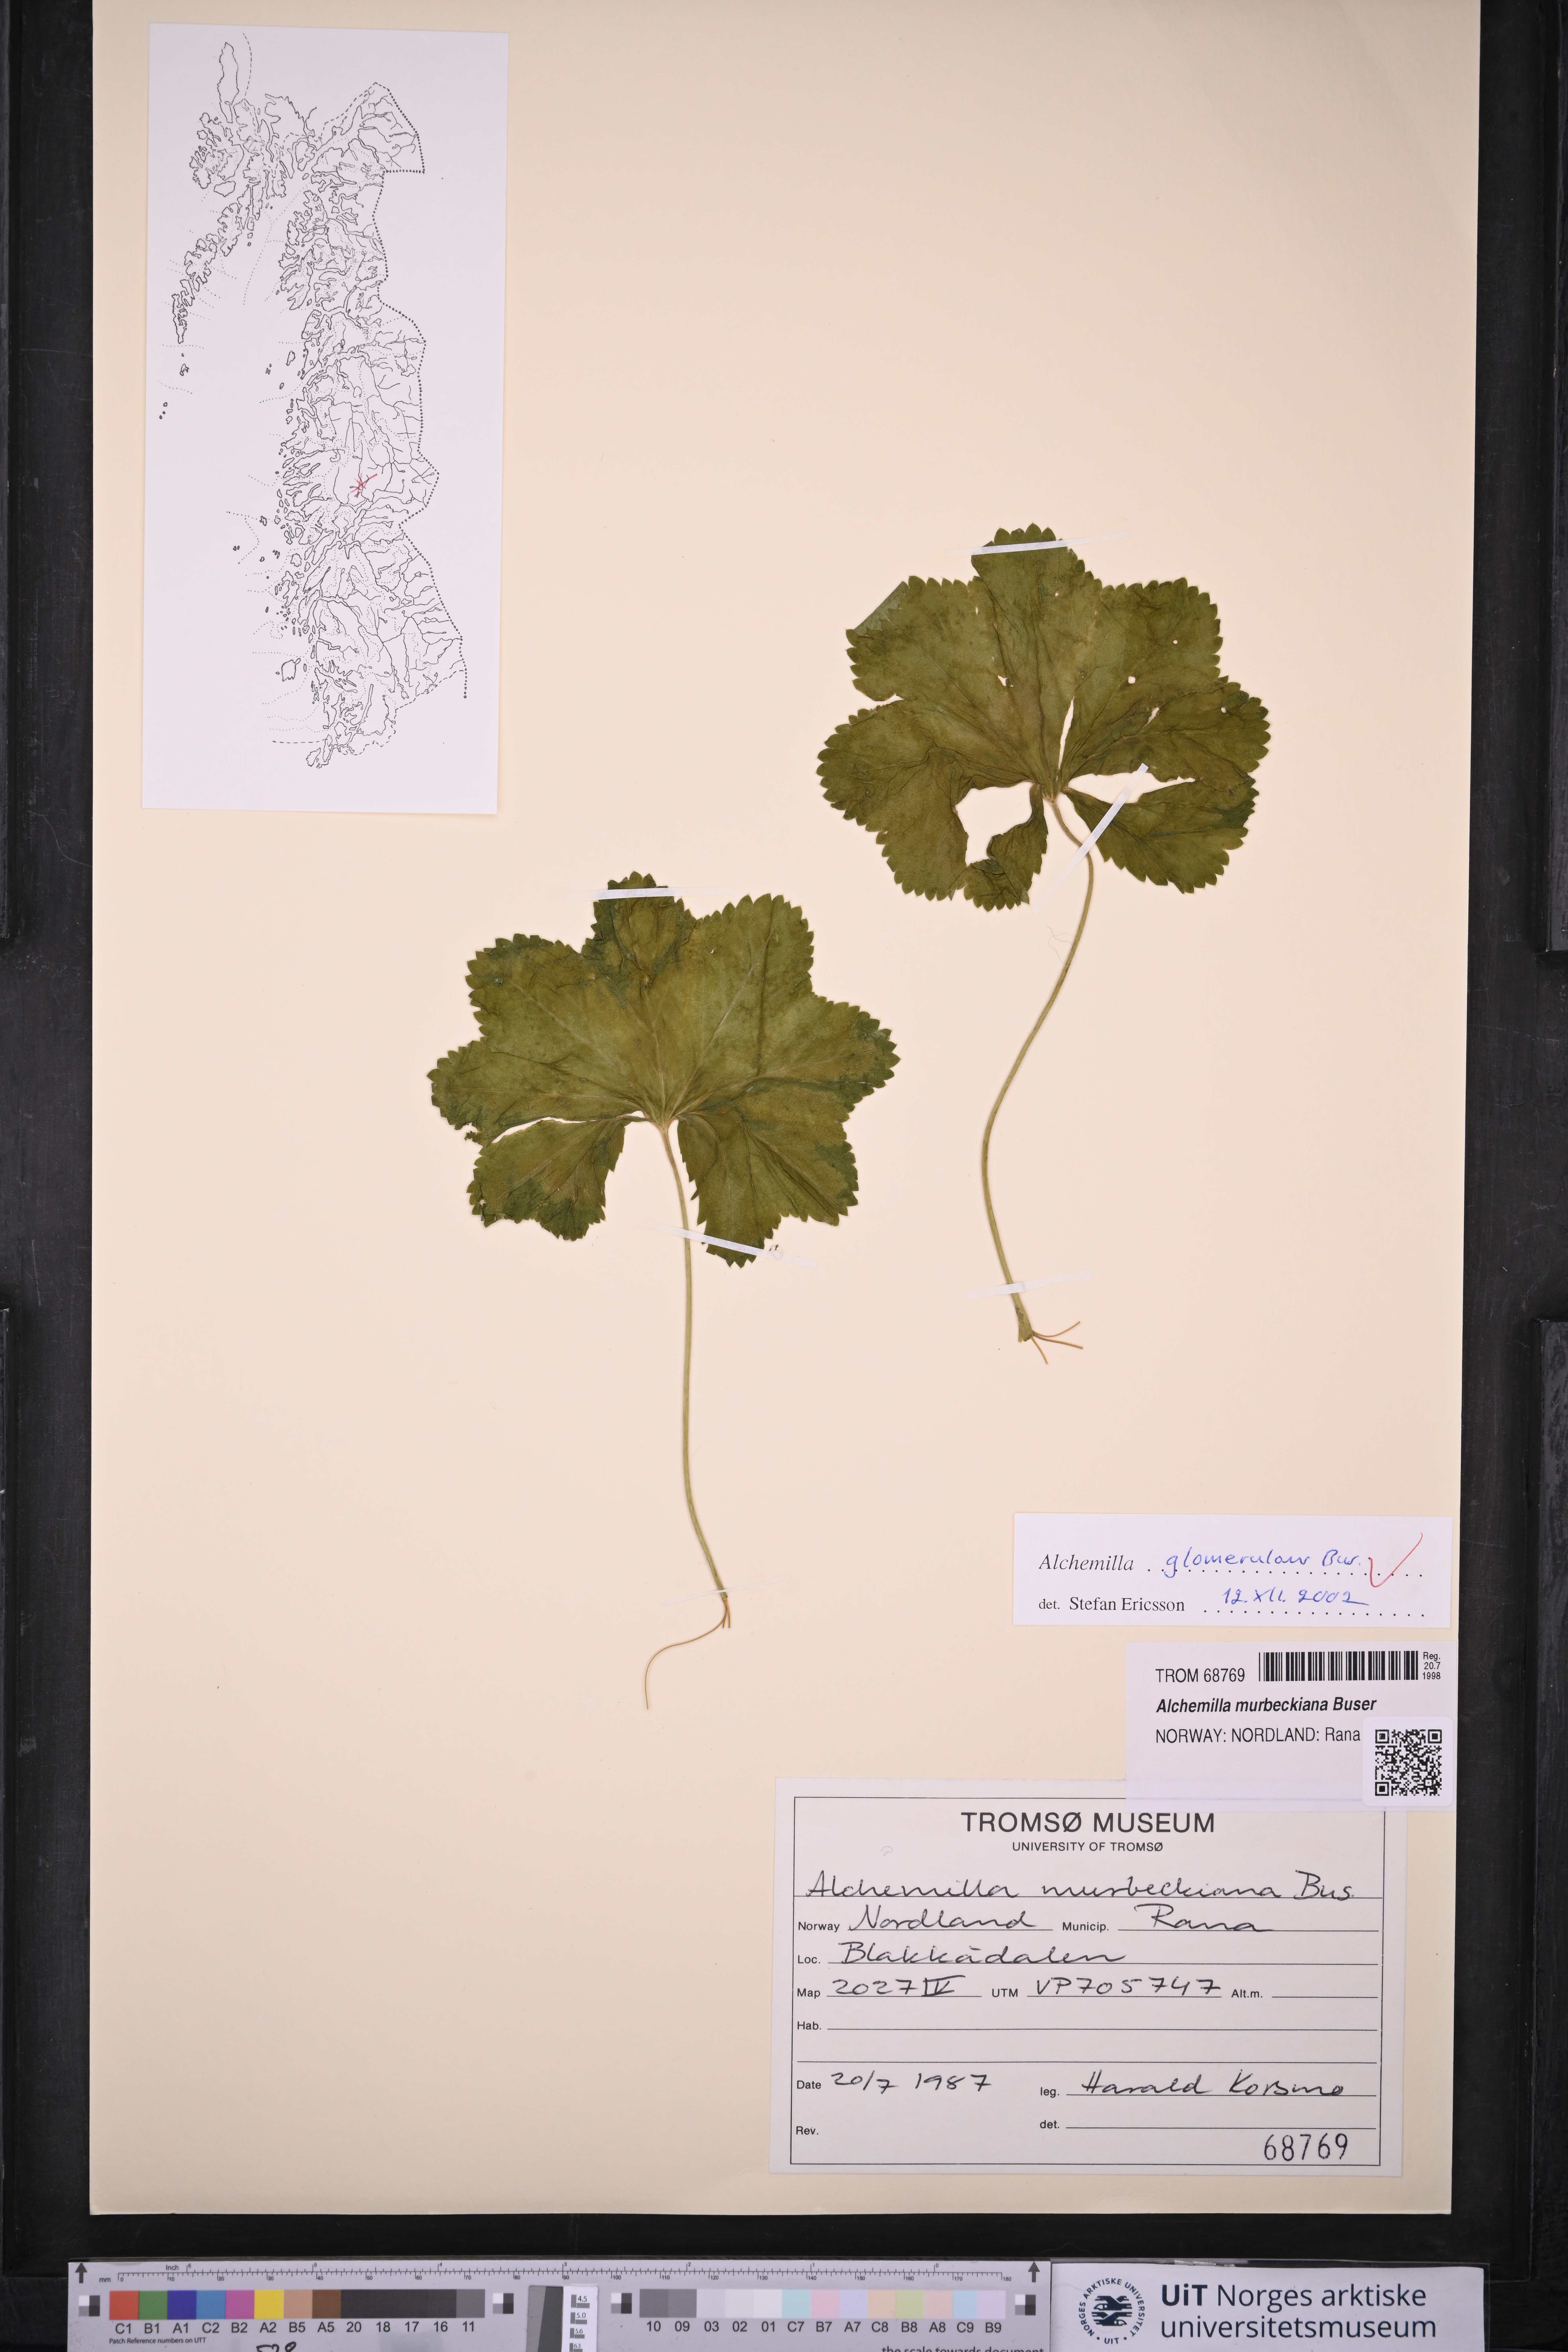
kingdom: Plantae
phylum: Tracheophyta
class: Magnoliopsida
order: Rosales
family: Rosaceae
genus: Alchemilla
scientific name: Alchemilla glomerulans
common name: Clustered lady's mantle
